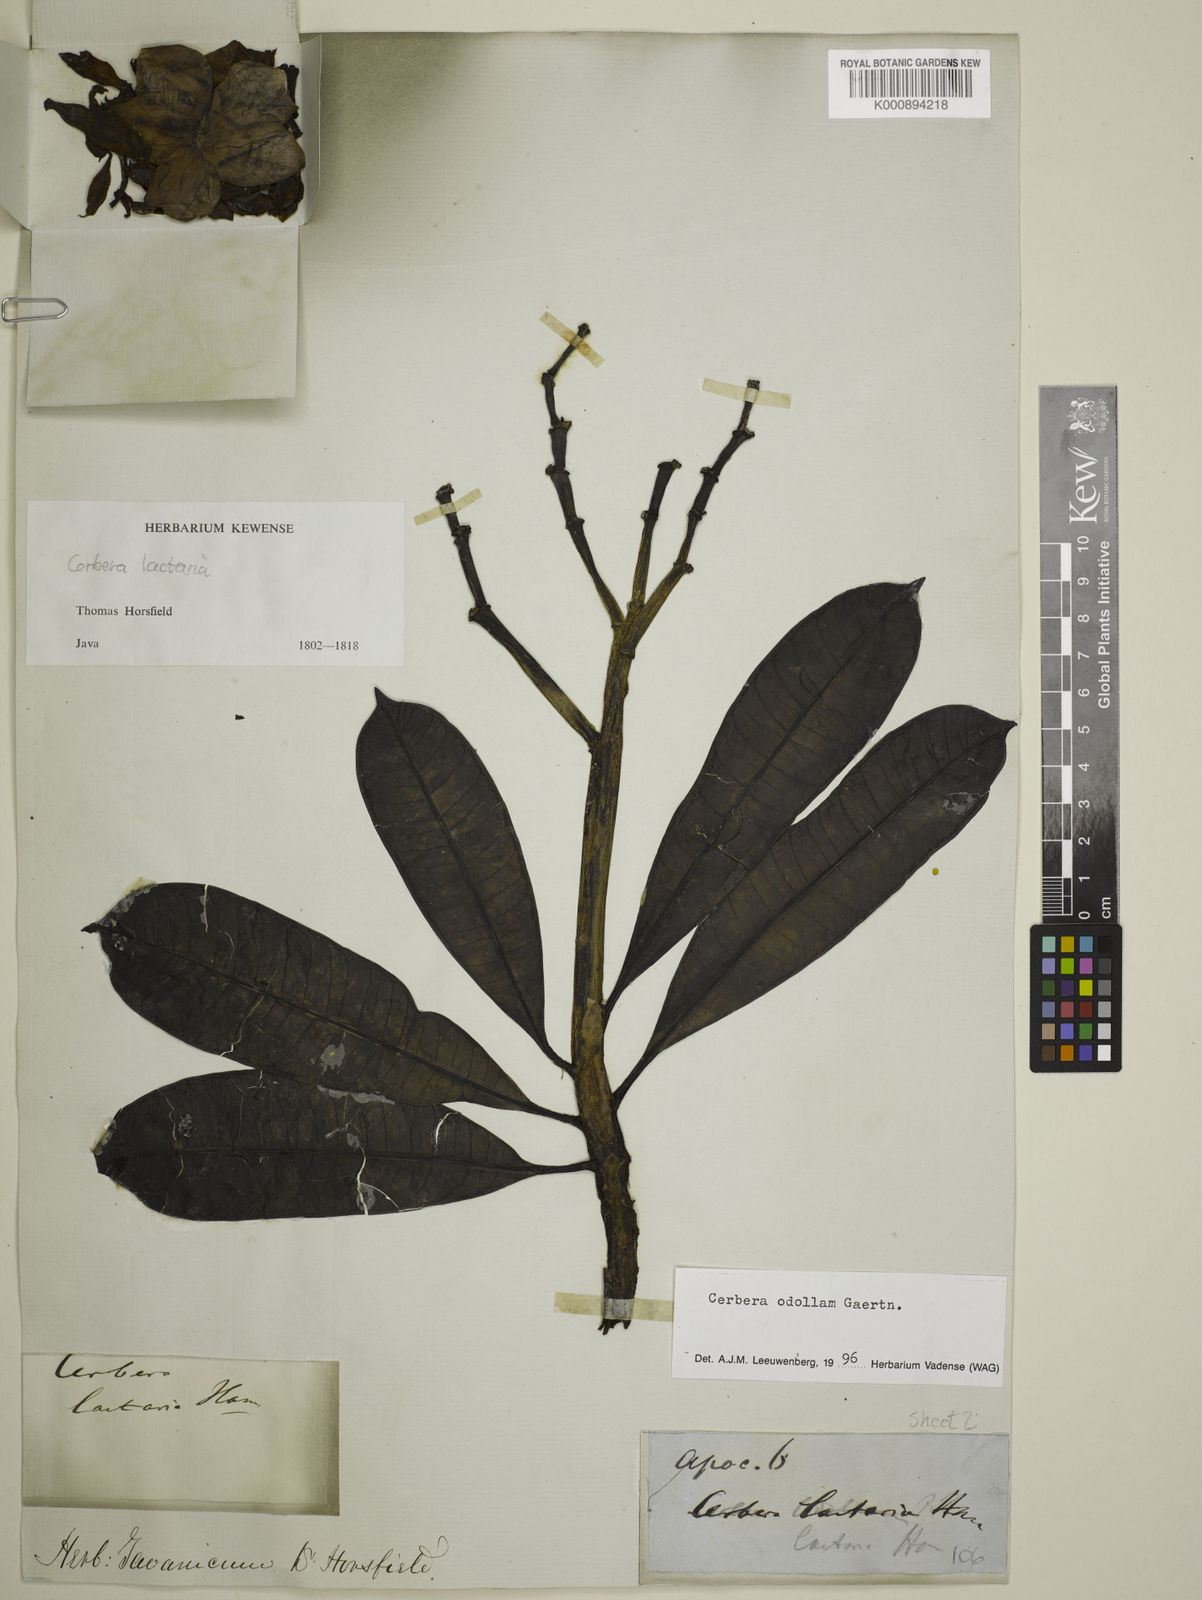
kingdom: Plantae
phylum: Tracheophyta
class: Magnoliopsida
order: Gentianales
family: Apocynaceae
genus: Cerbera
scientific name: Cerbera odollam
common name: Pong-pong
